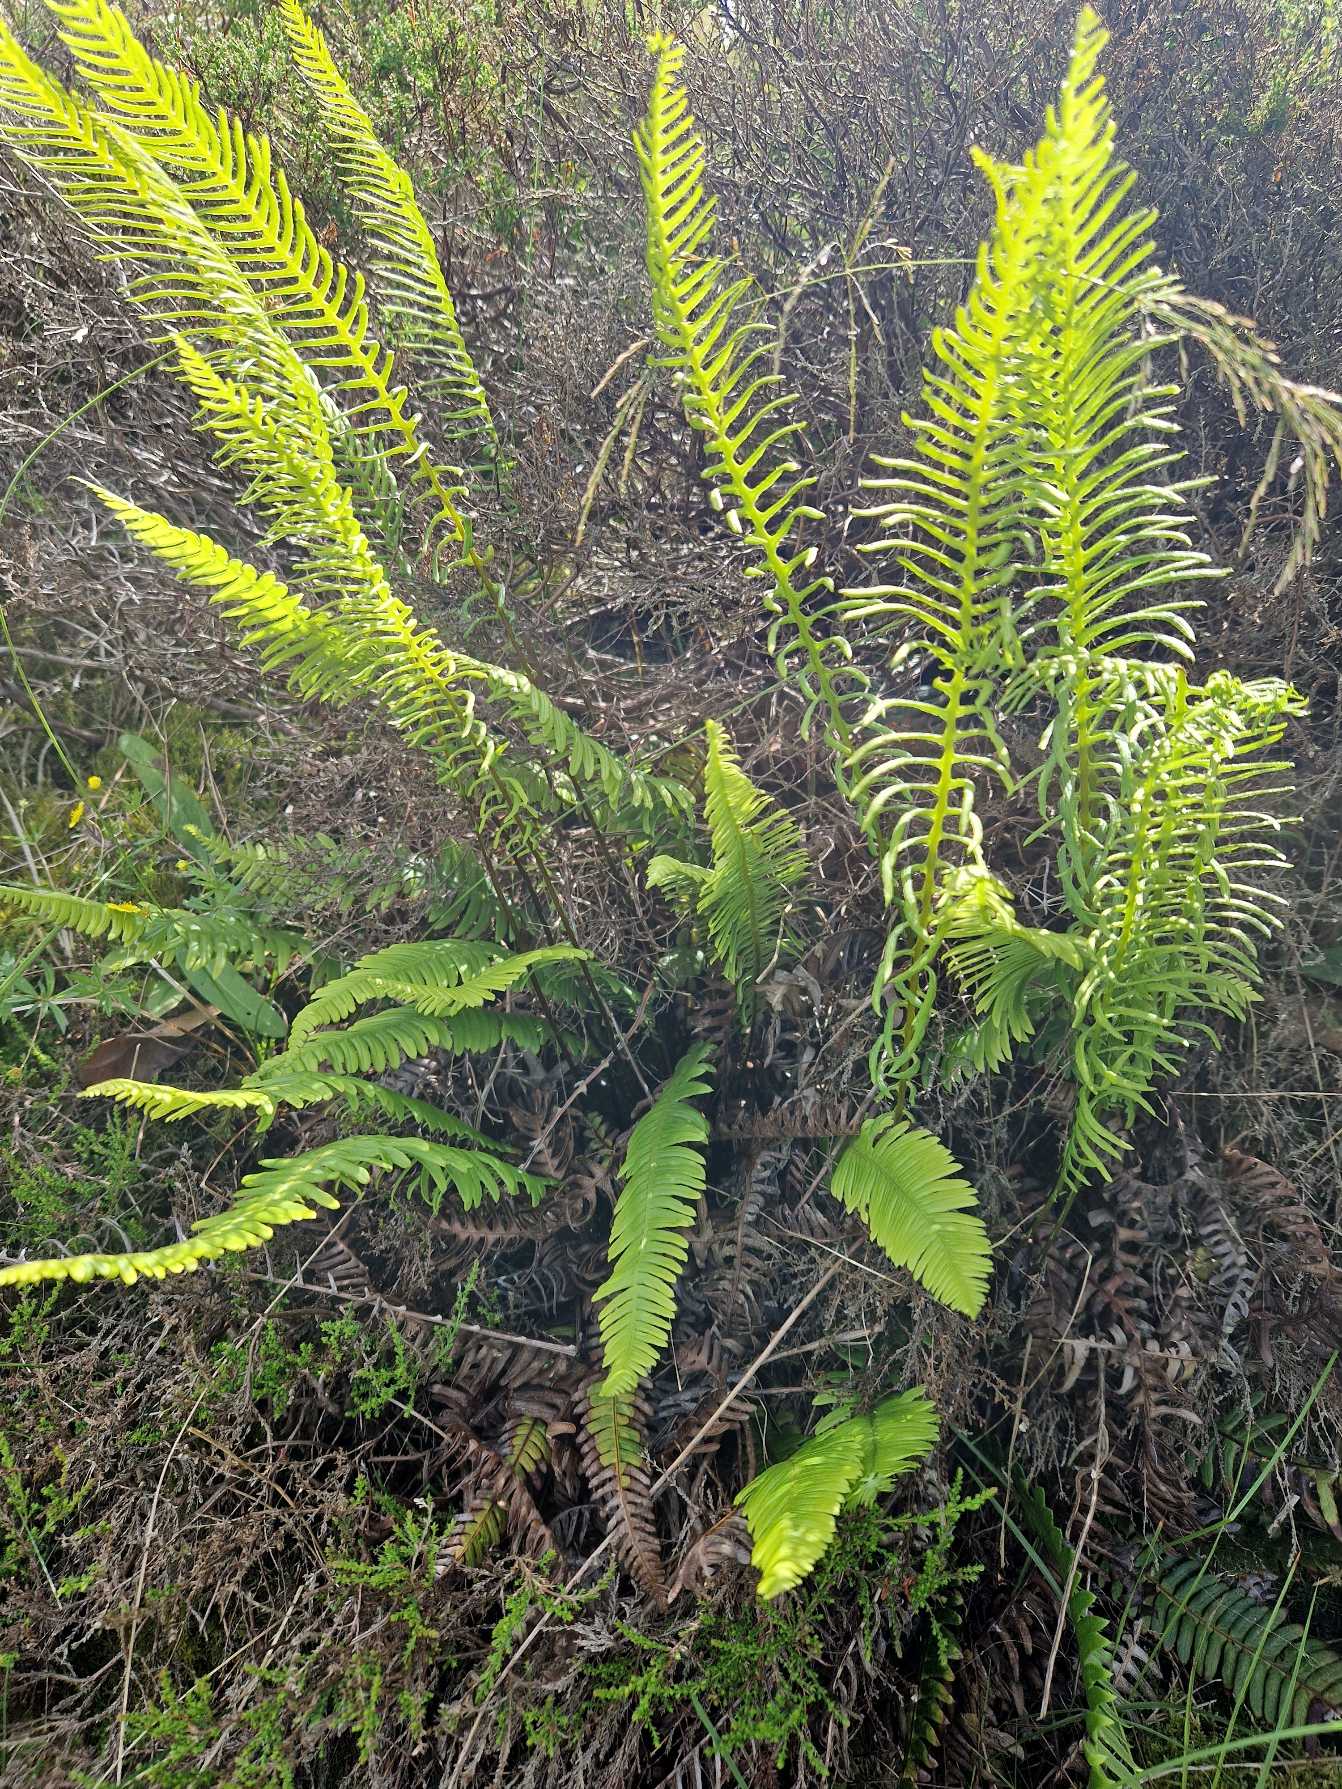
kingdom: Plantae
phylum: Tracheophyta
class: Polypodiopsida
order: Polypodiales
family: Blechnaceae
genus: Struthiopteris
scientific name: Struthiopteris spicant
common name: Kambregne
